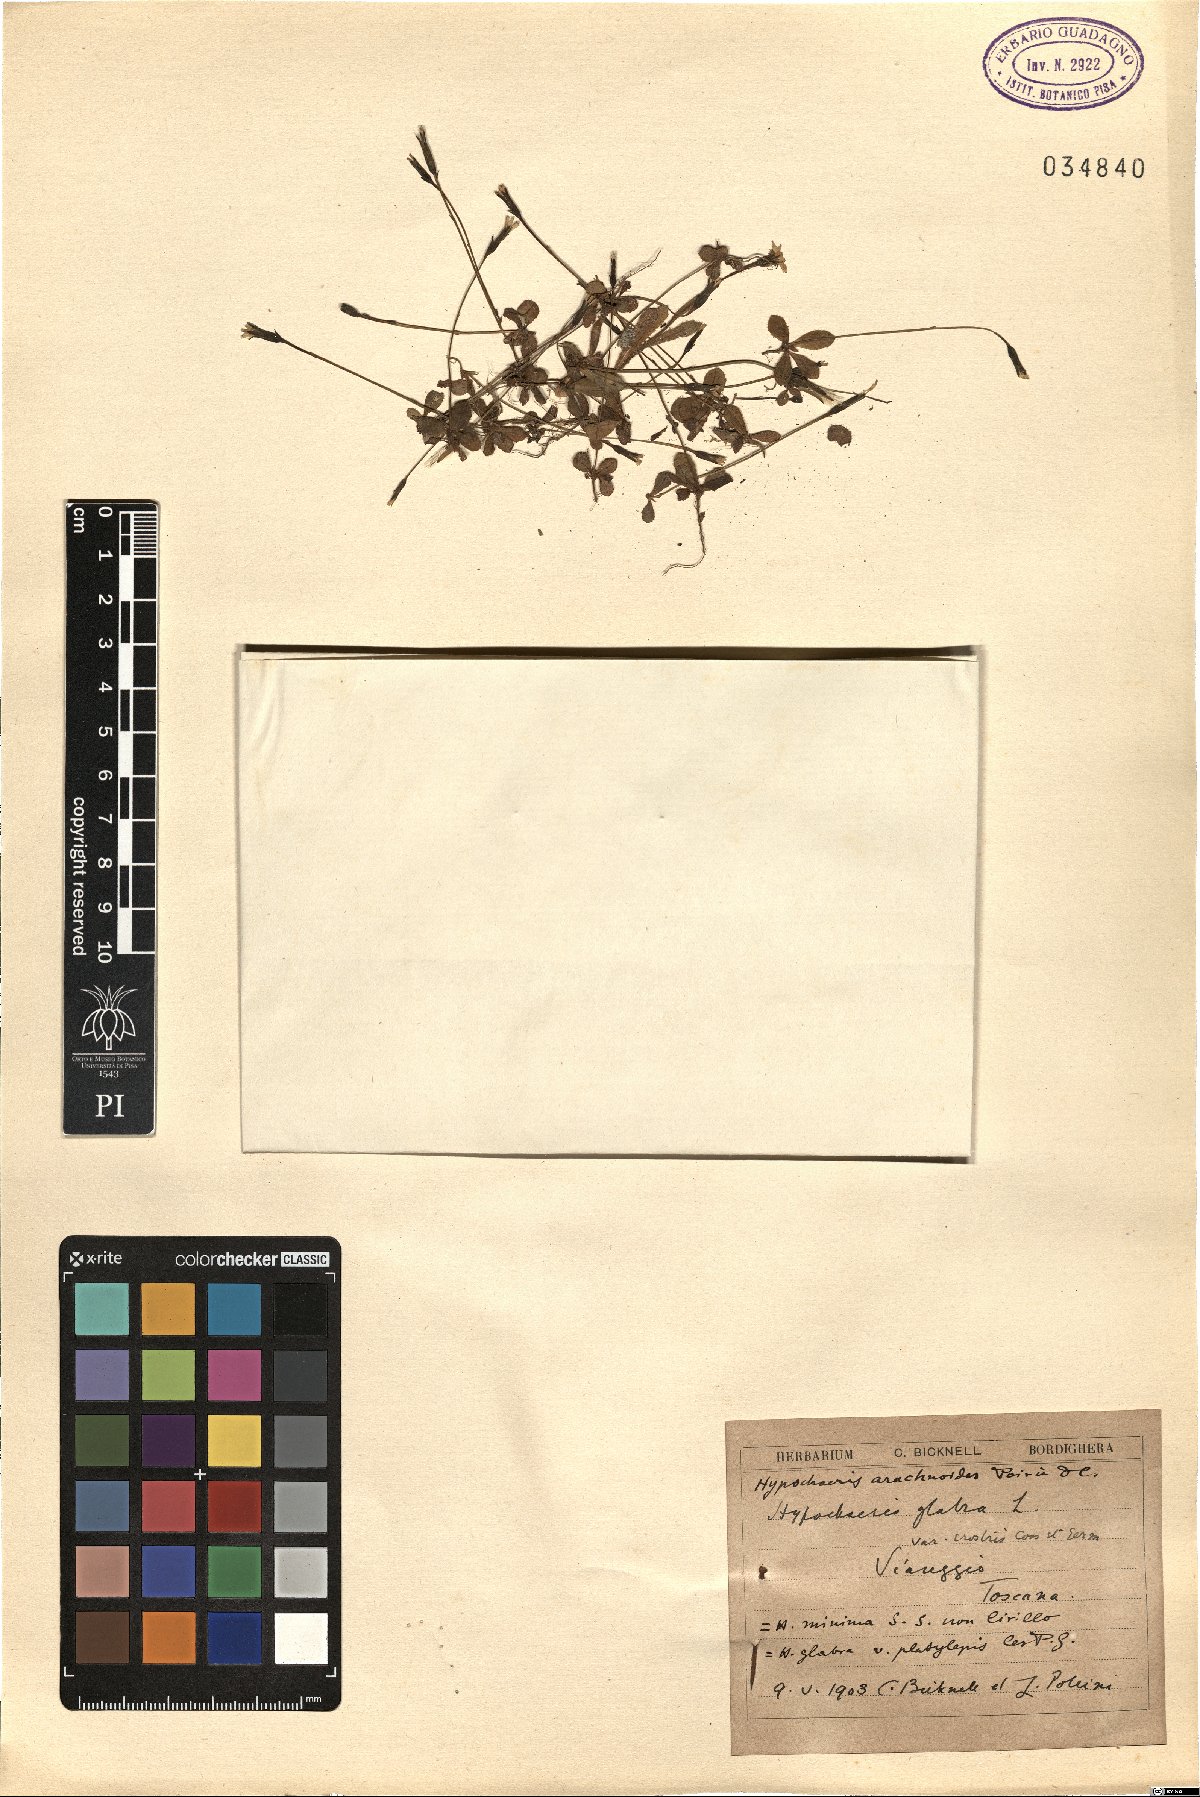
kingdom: Plantae
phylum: Tracheophyta
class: Magnoliopsida
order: Asterales
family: Asteraceae
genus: Hypochaeris
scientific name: Hypochaeris arachnoides
